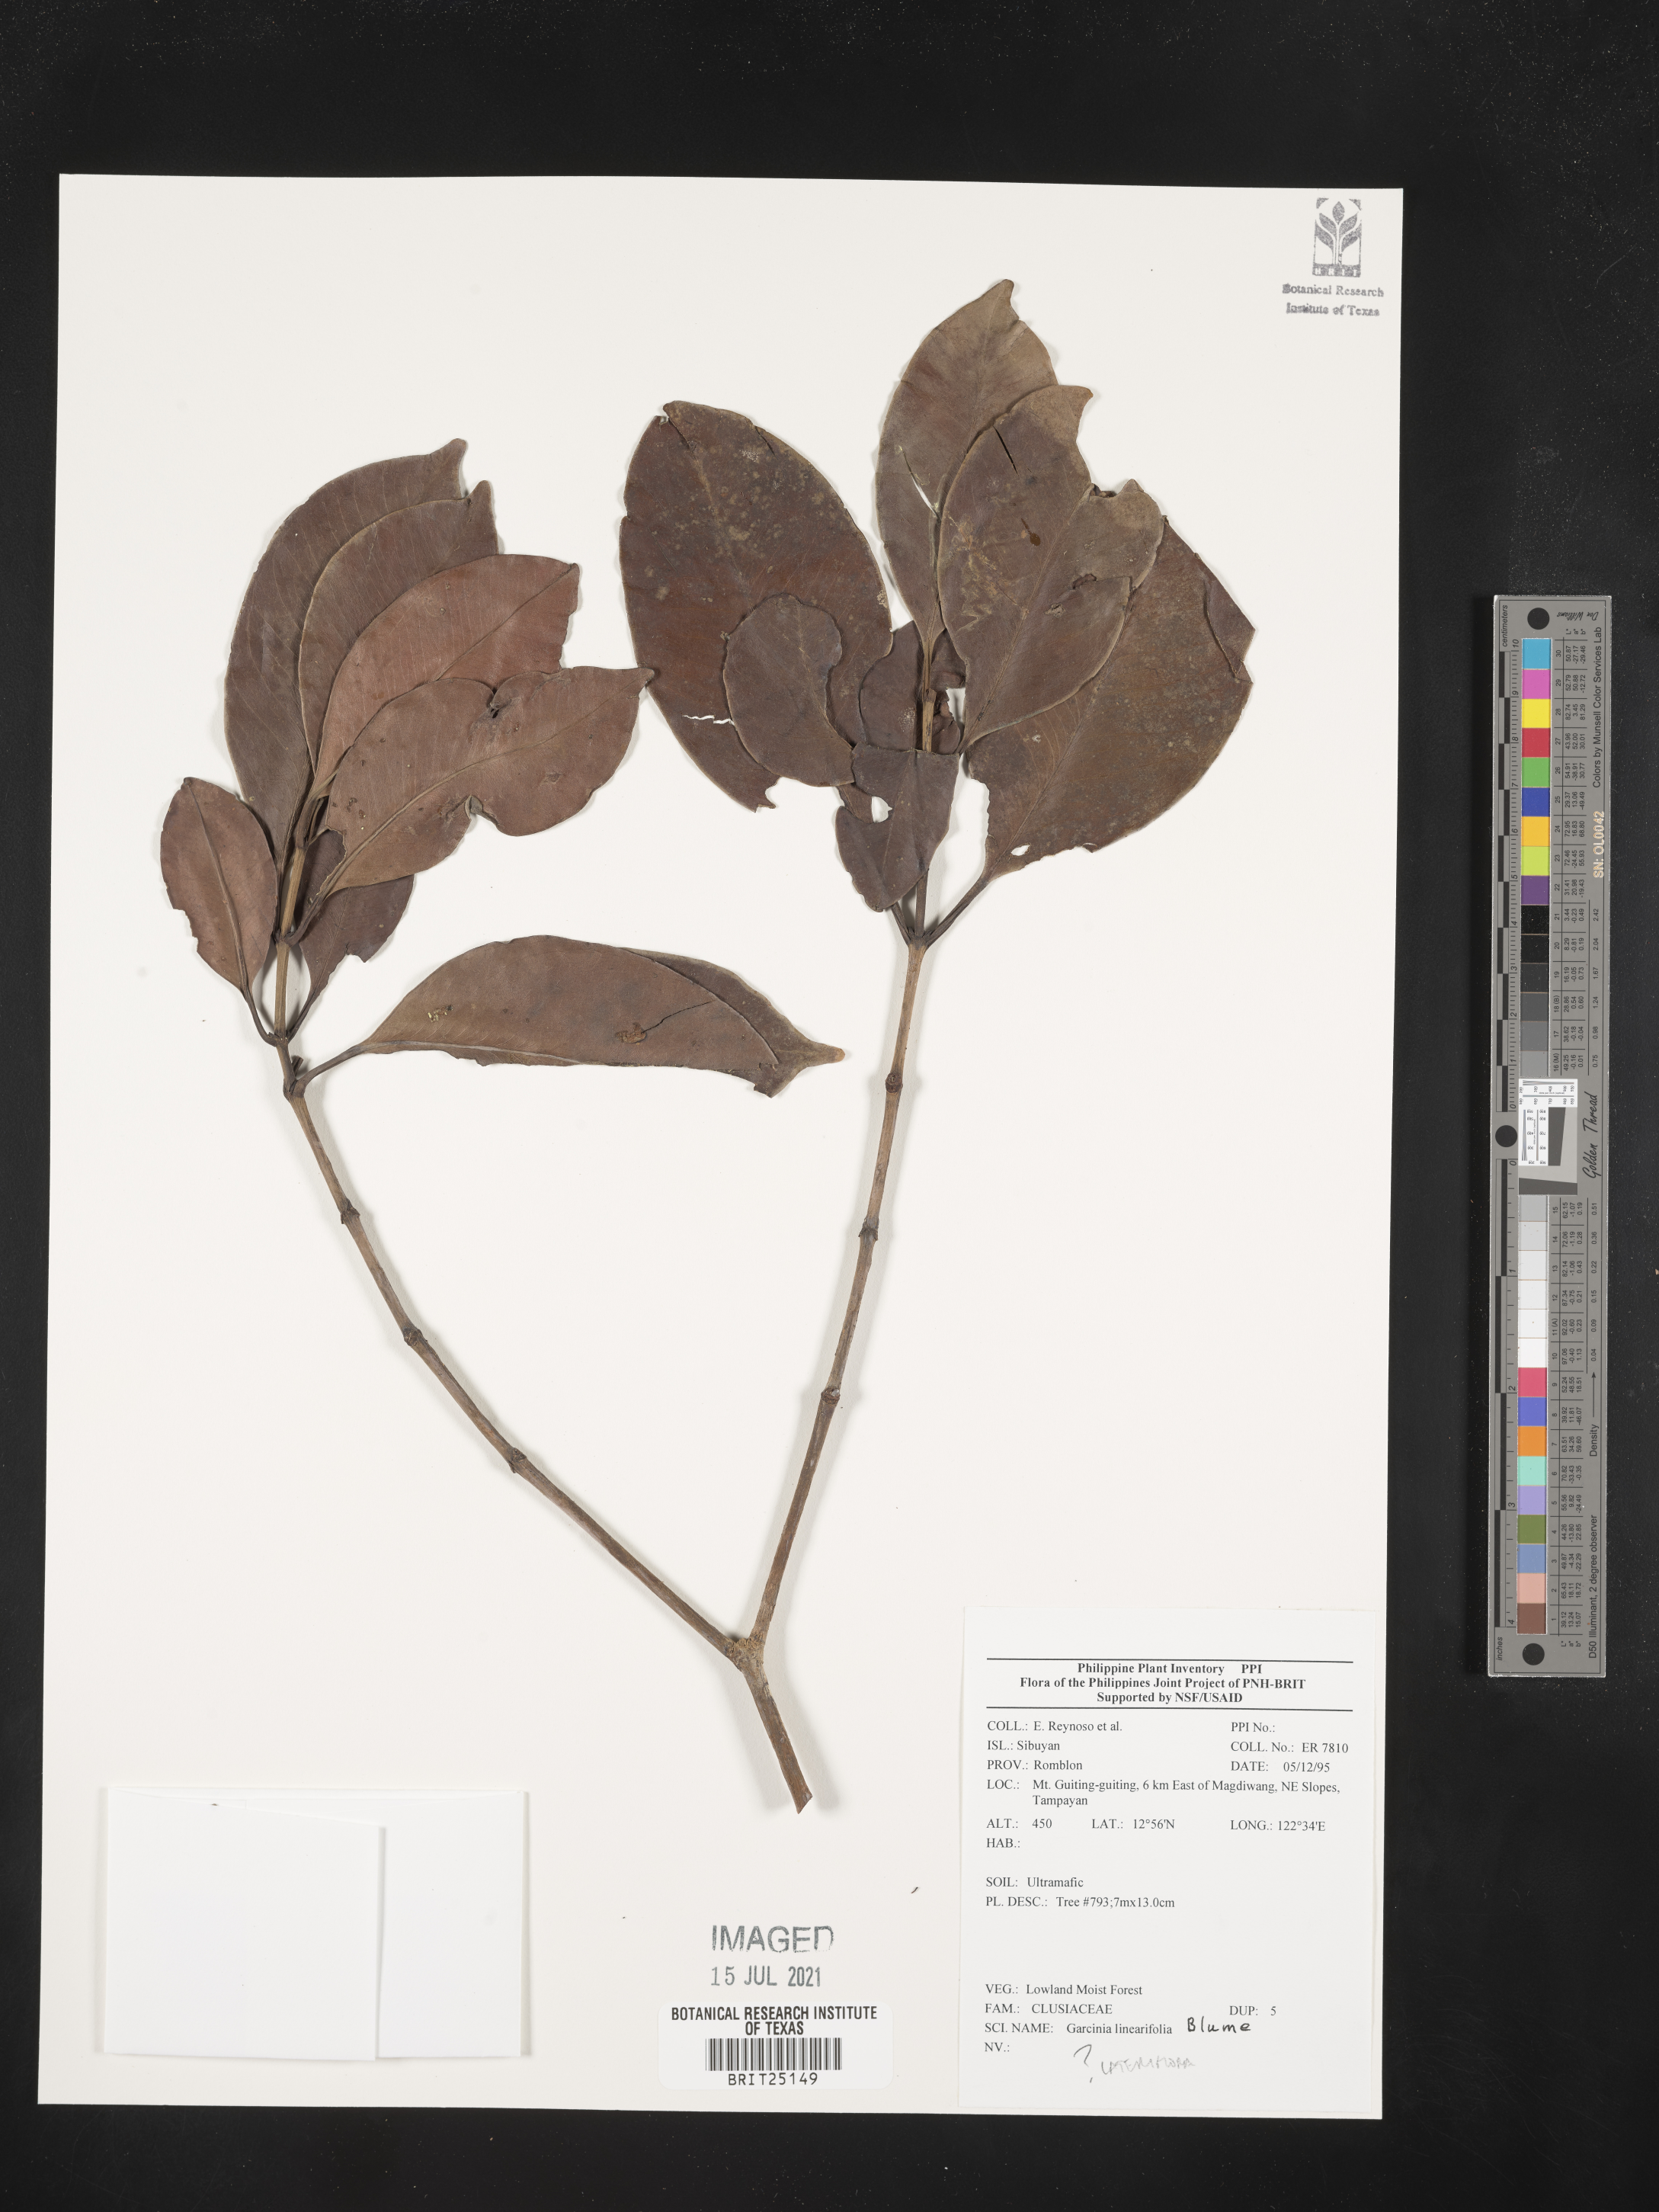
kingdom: Plantae
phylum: Tracheophyta
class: Magnoliopsida
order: Malpighiales
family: Clusiaceae
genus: Garcinia
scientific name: Garcinia linearifolia
